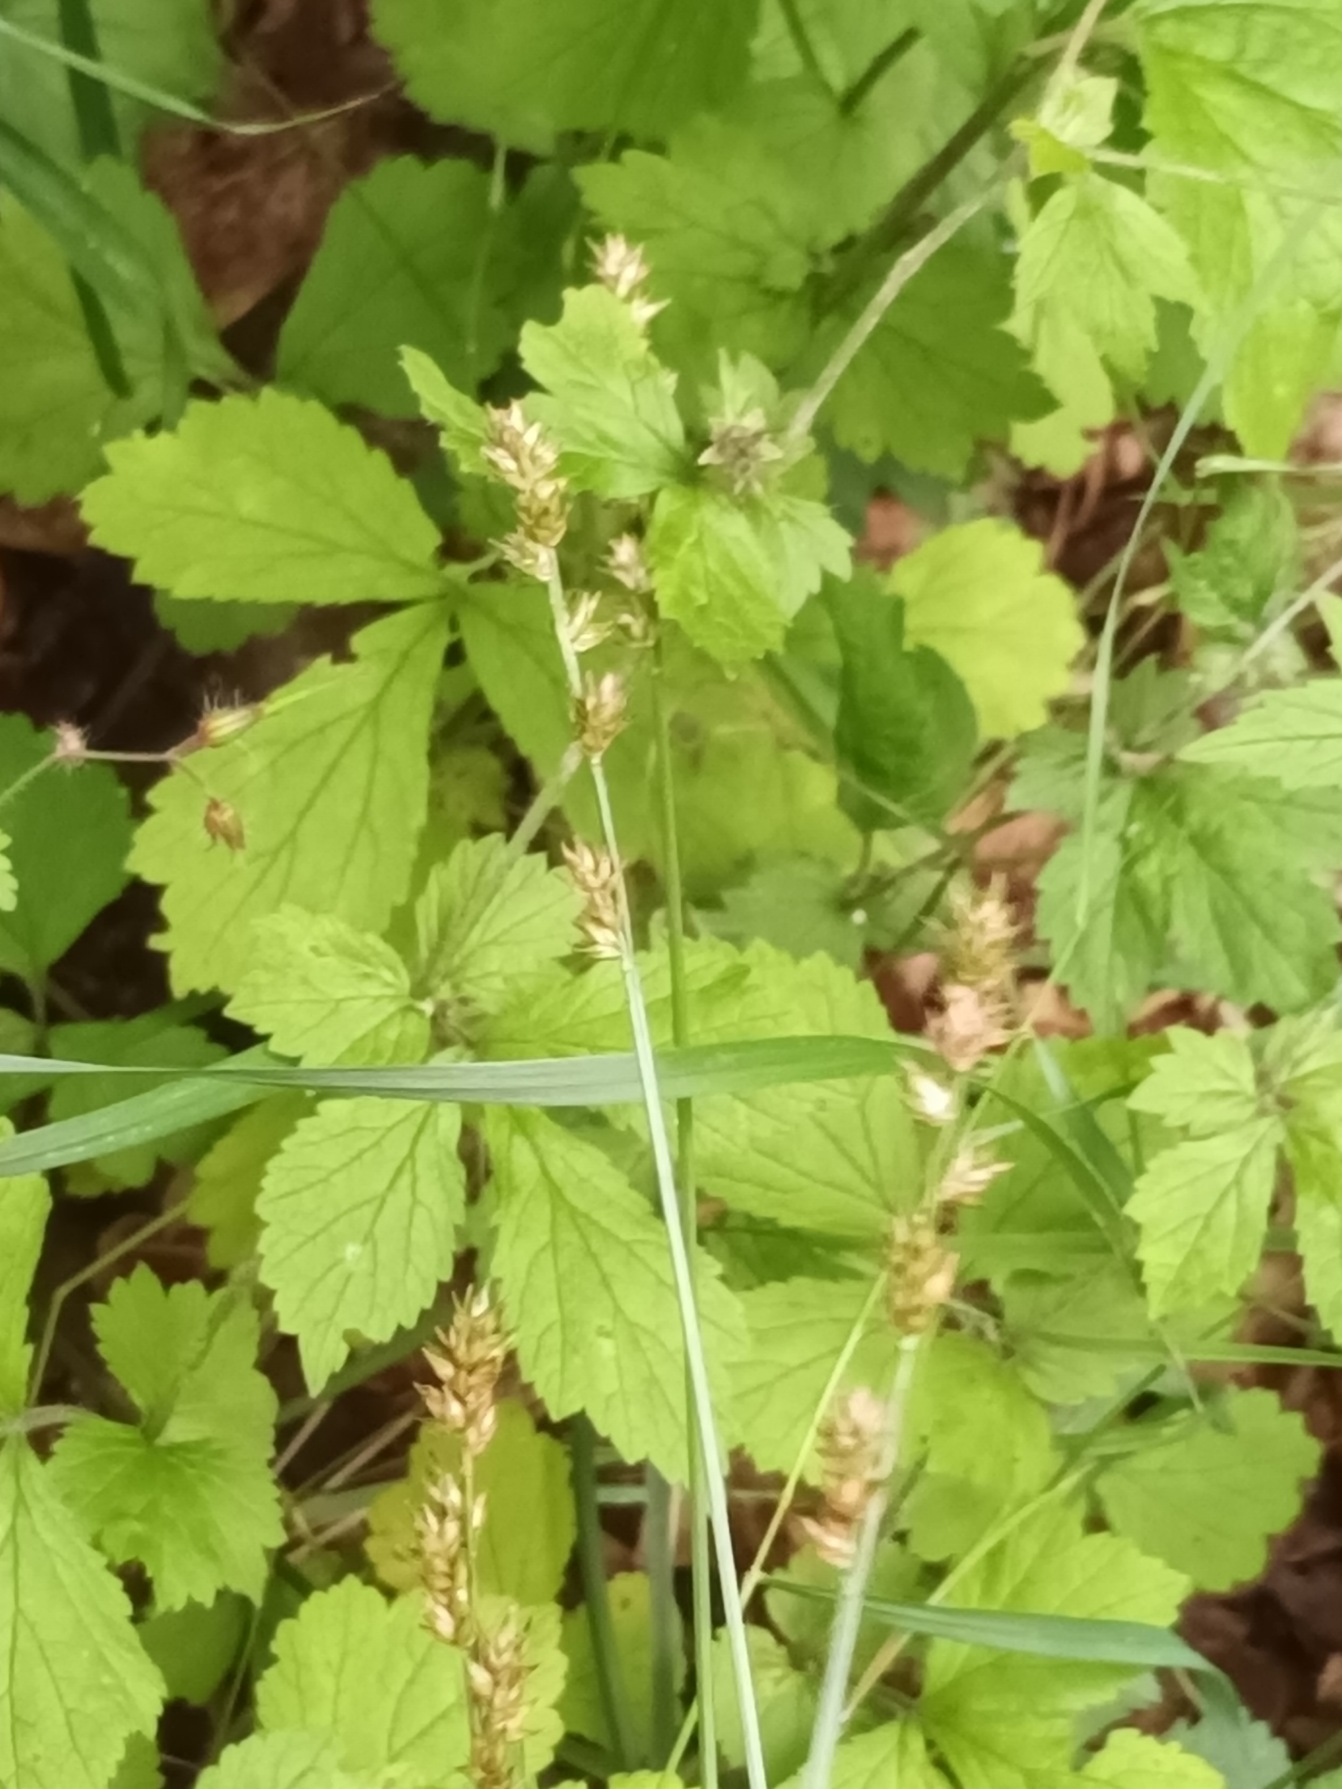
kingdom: Plantae
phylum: Tracheophyta
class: Liliopsida
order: Poales
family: Cyperaceae
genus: Carex
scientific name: Carex divulsa
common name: Mellembrudt star
